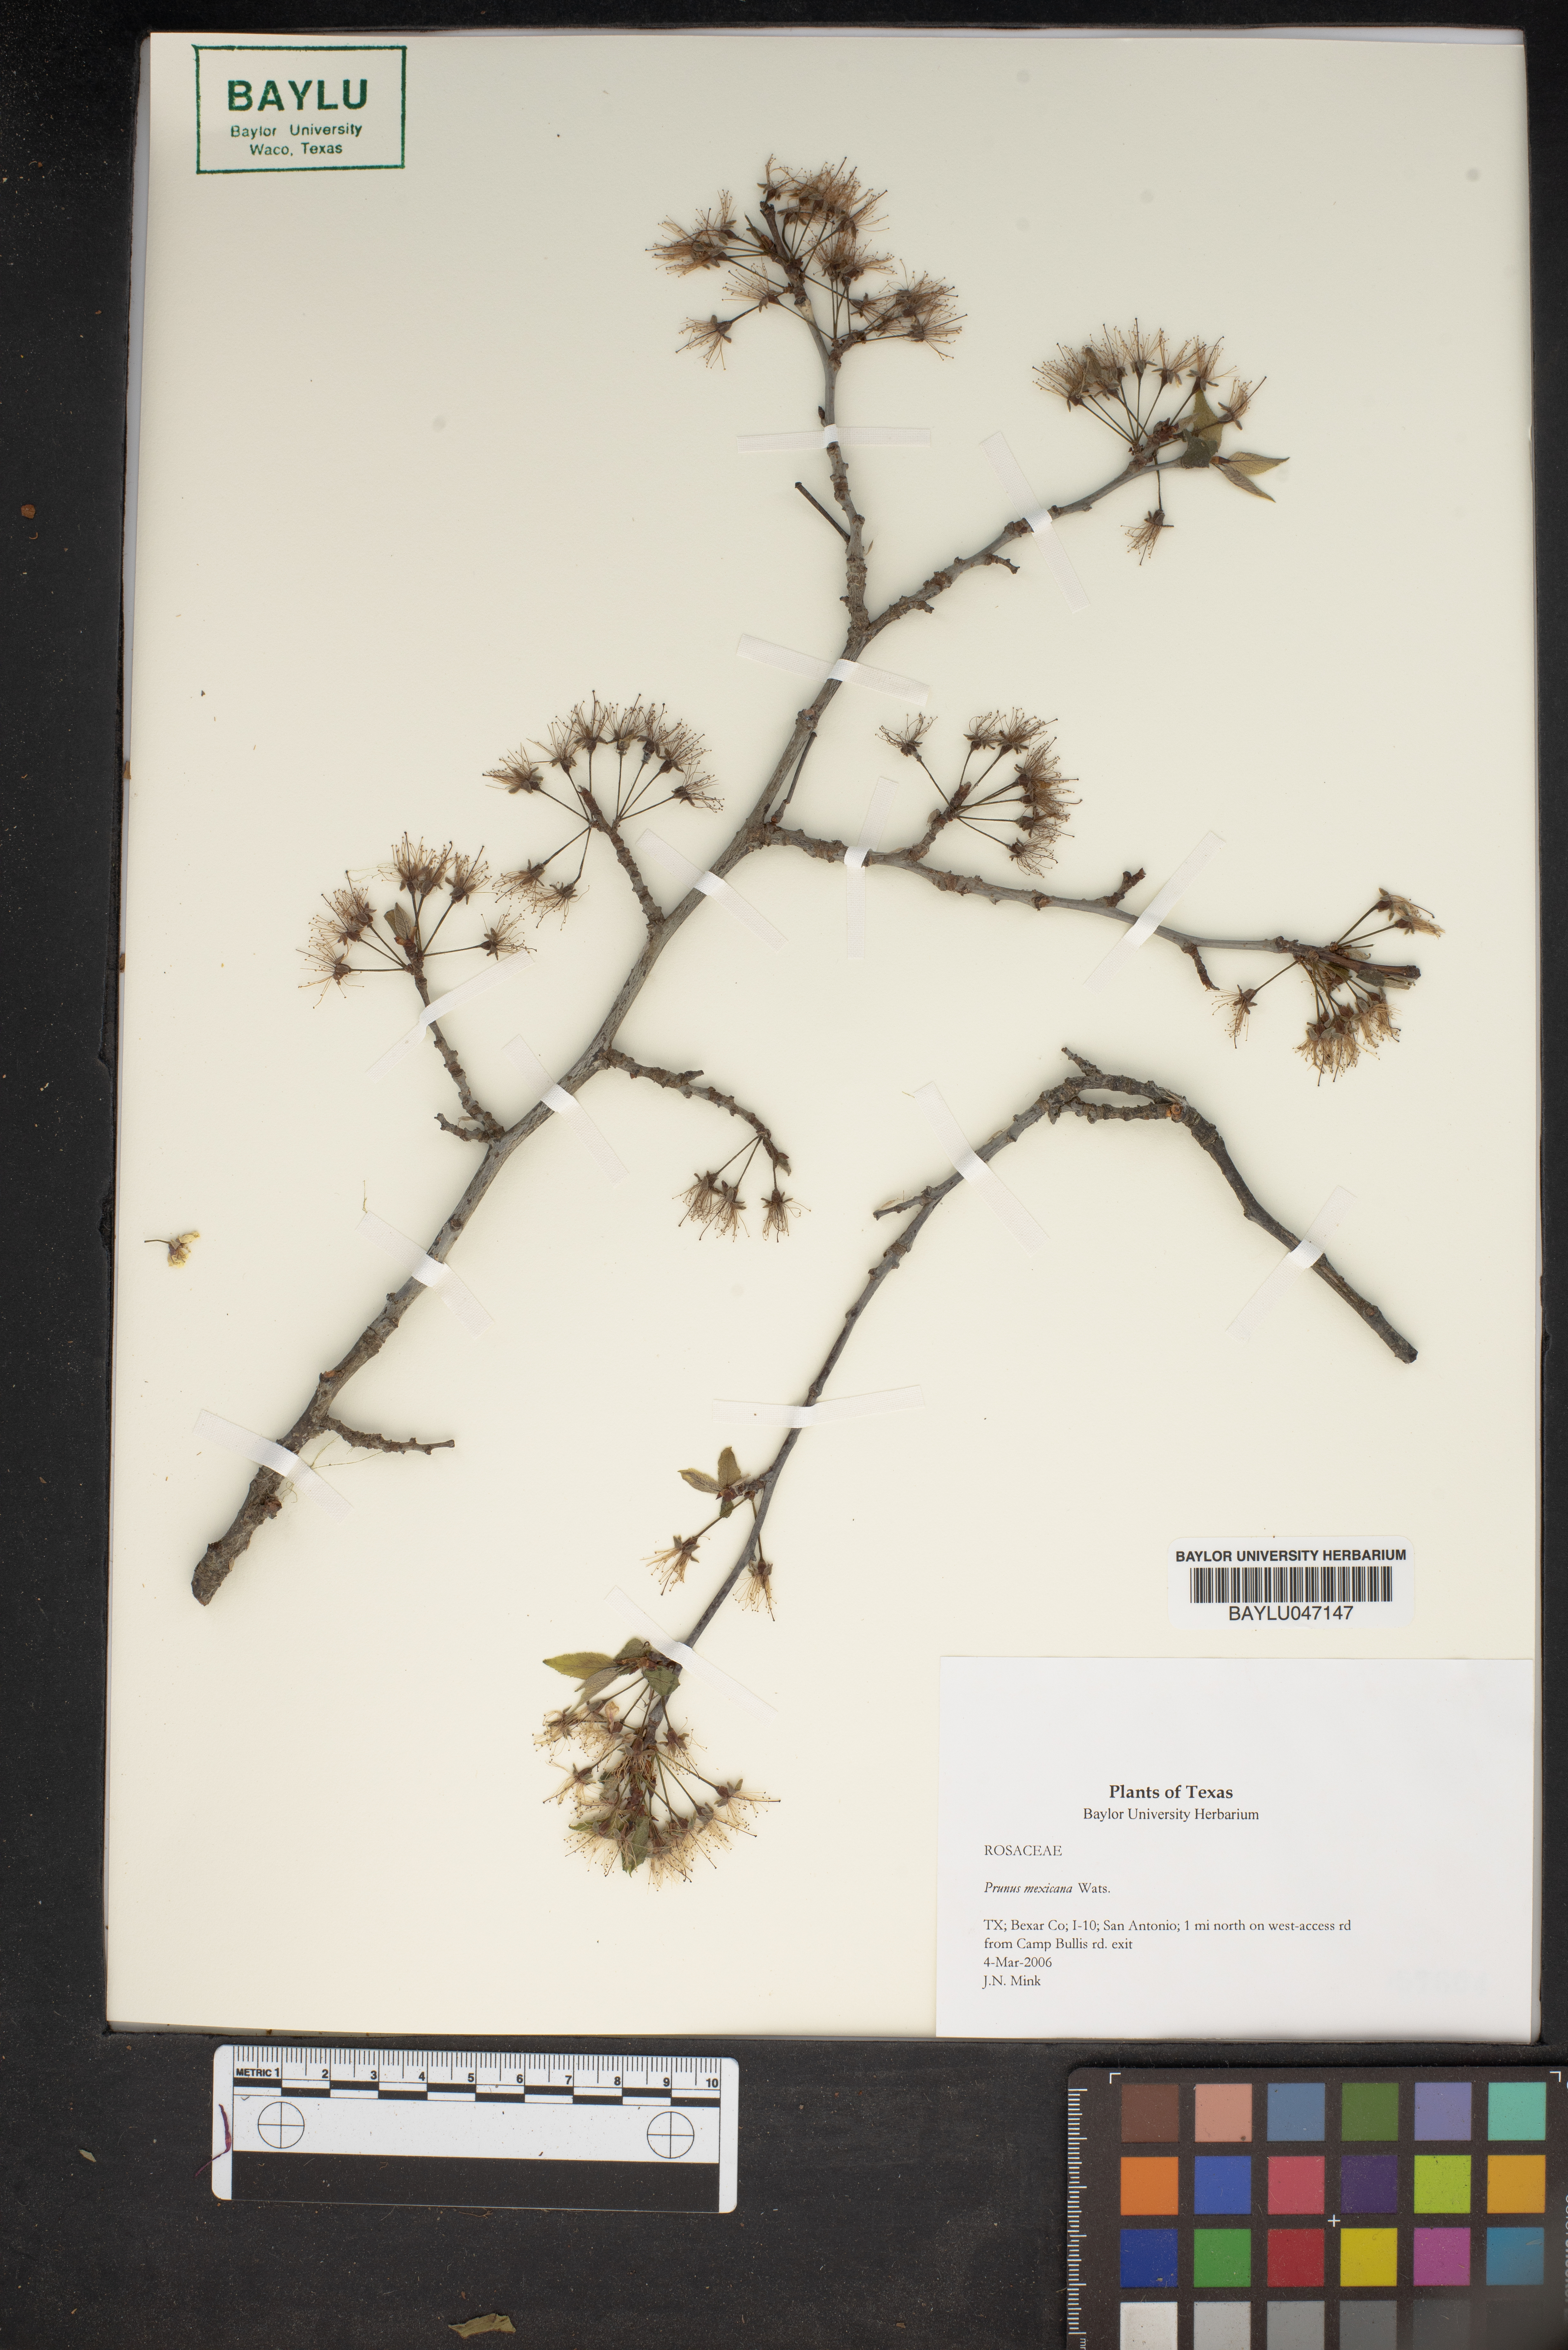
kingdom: Plantae
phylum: Tracheophyta
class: Magnoliopsida
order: Rosales
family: Rosaceae
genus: Prunus
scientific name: Prunus mexicana
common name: Mexican plum
